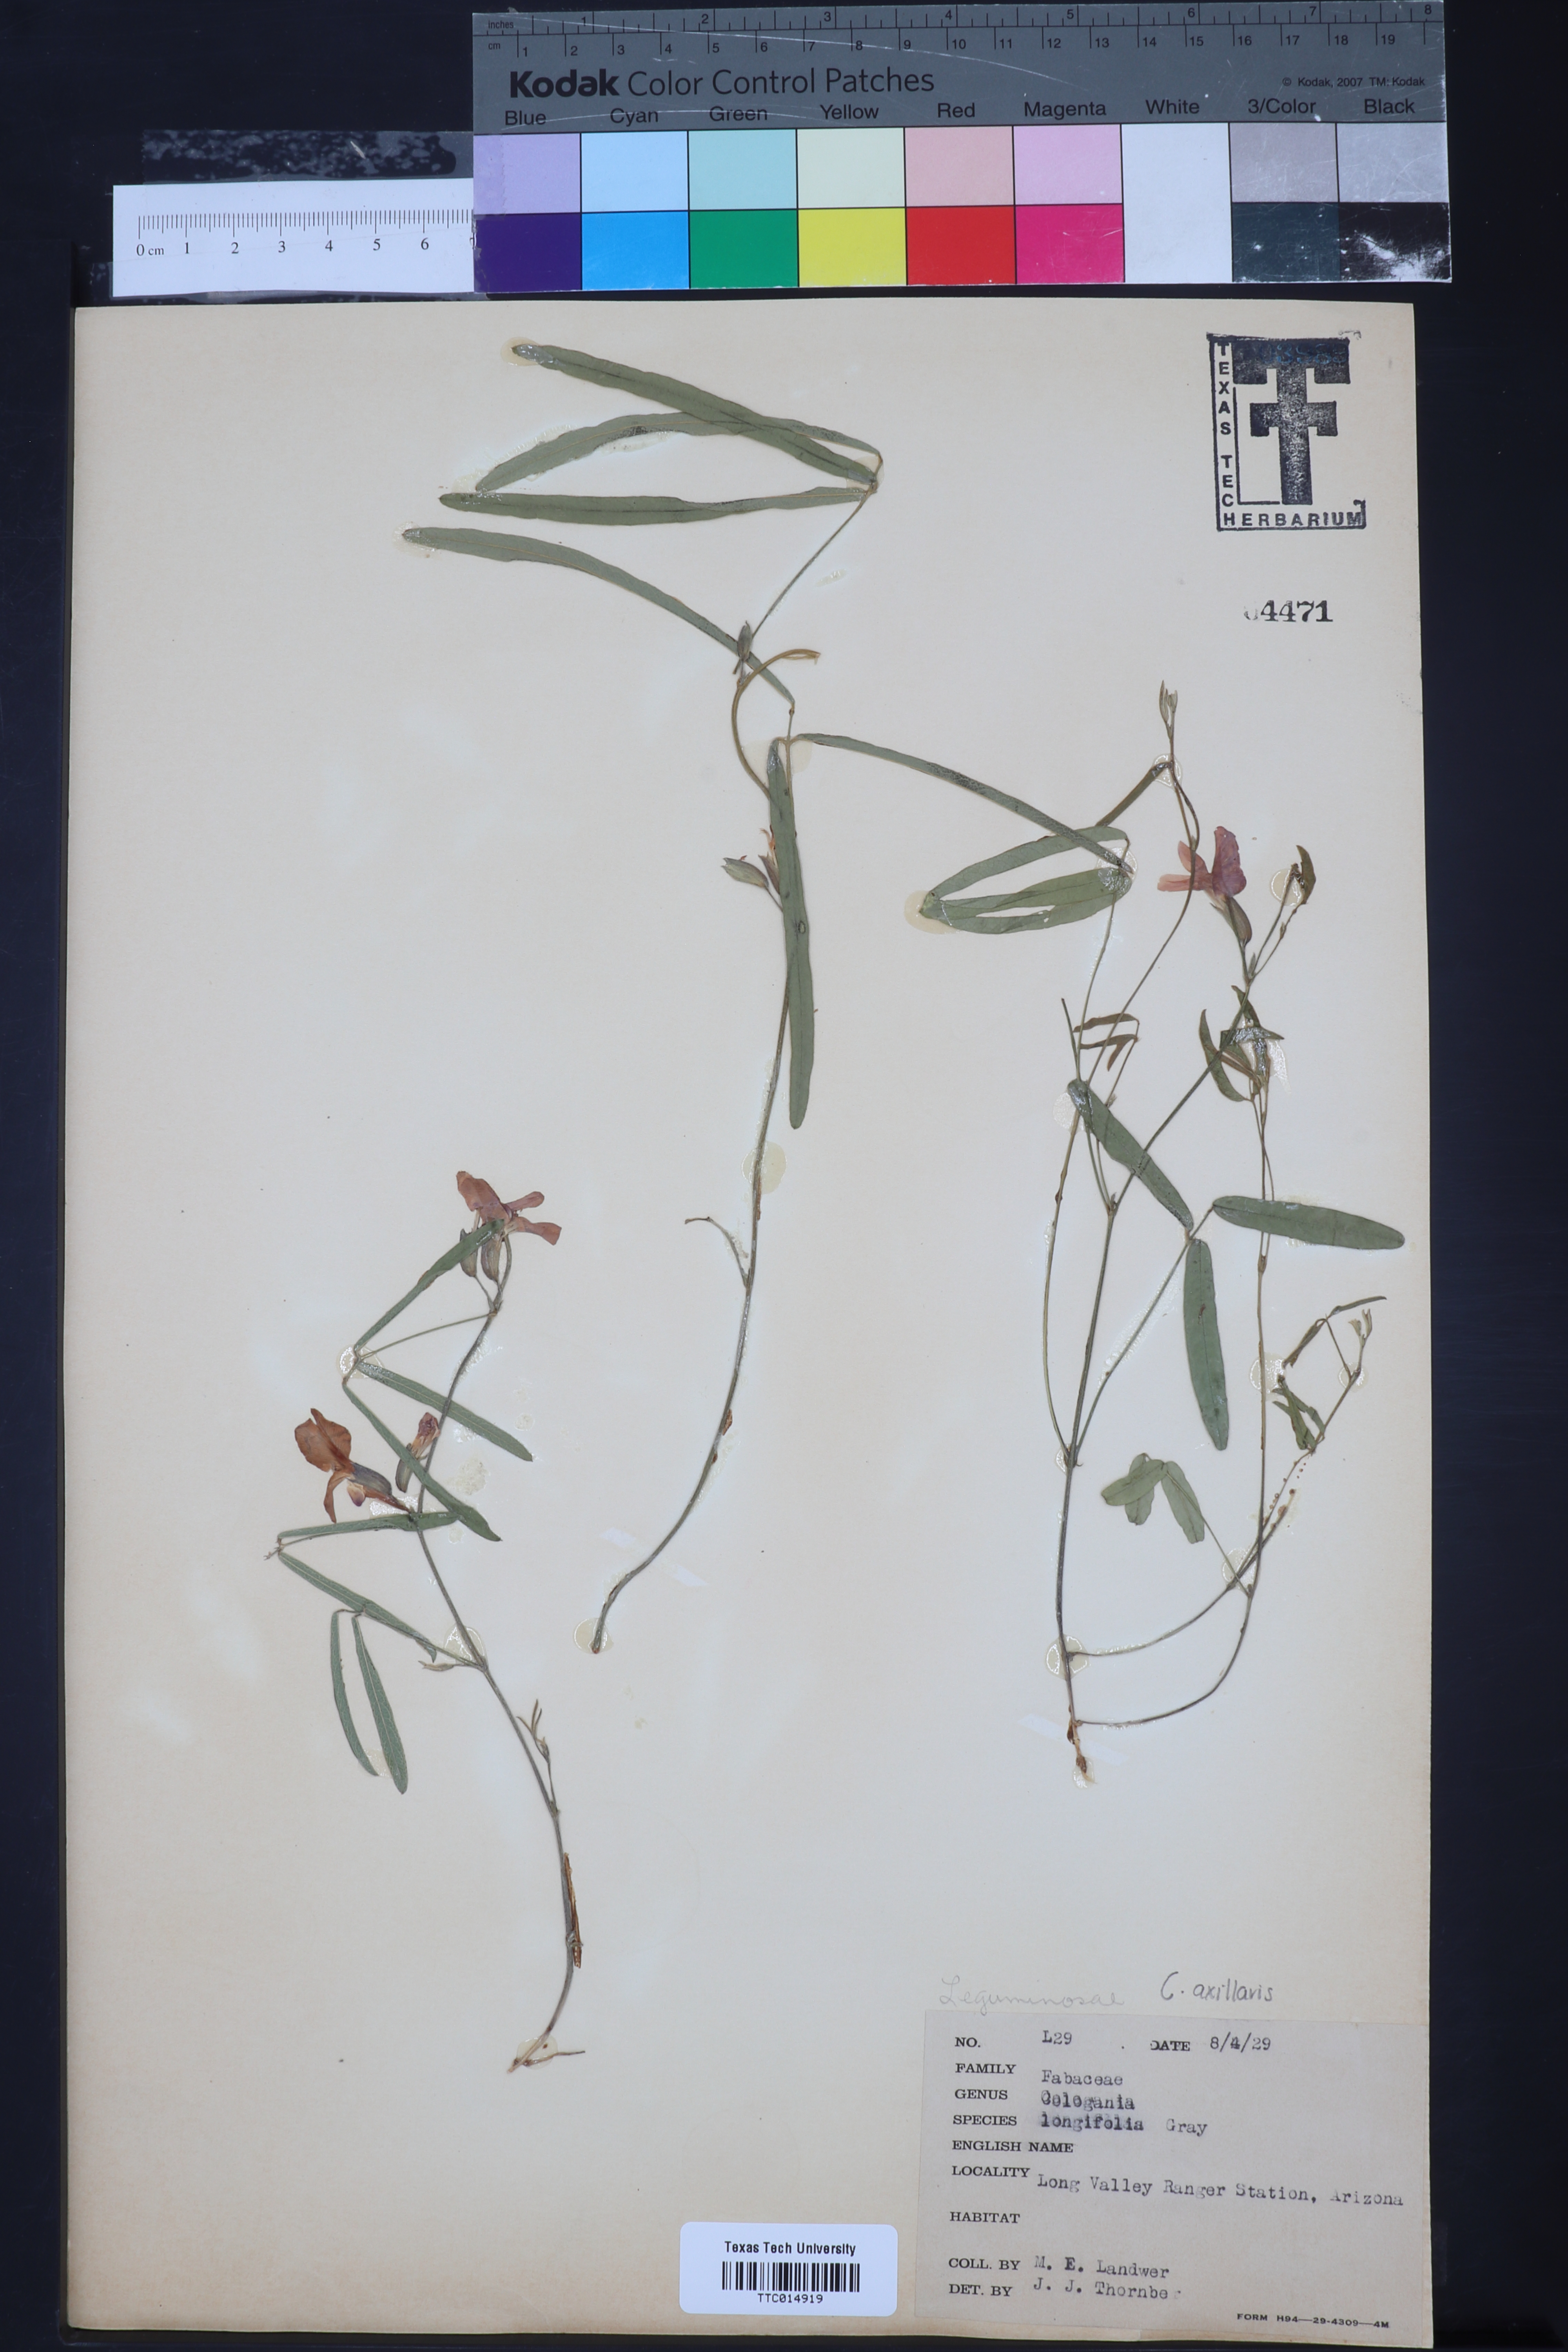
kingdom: Plantae
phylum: Tracheophyta
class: Magnoliopsida
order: Fabales
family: Fabaceae
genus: Cologania
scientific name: Cologania angustifolia
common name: Longleaf cologania
